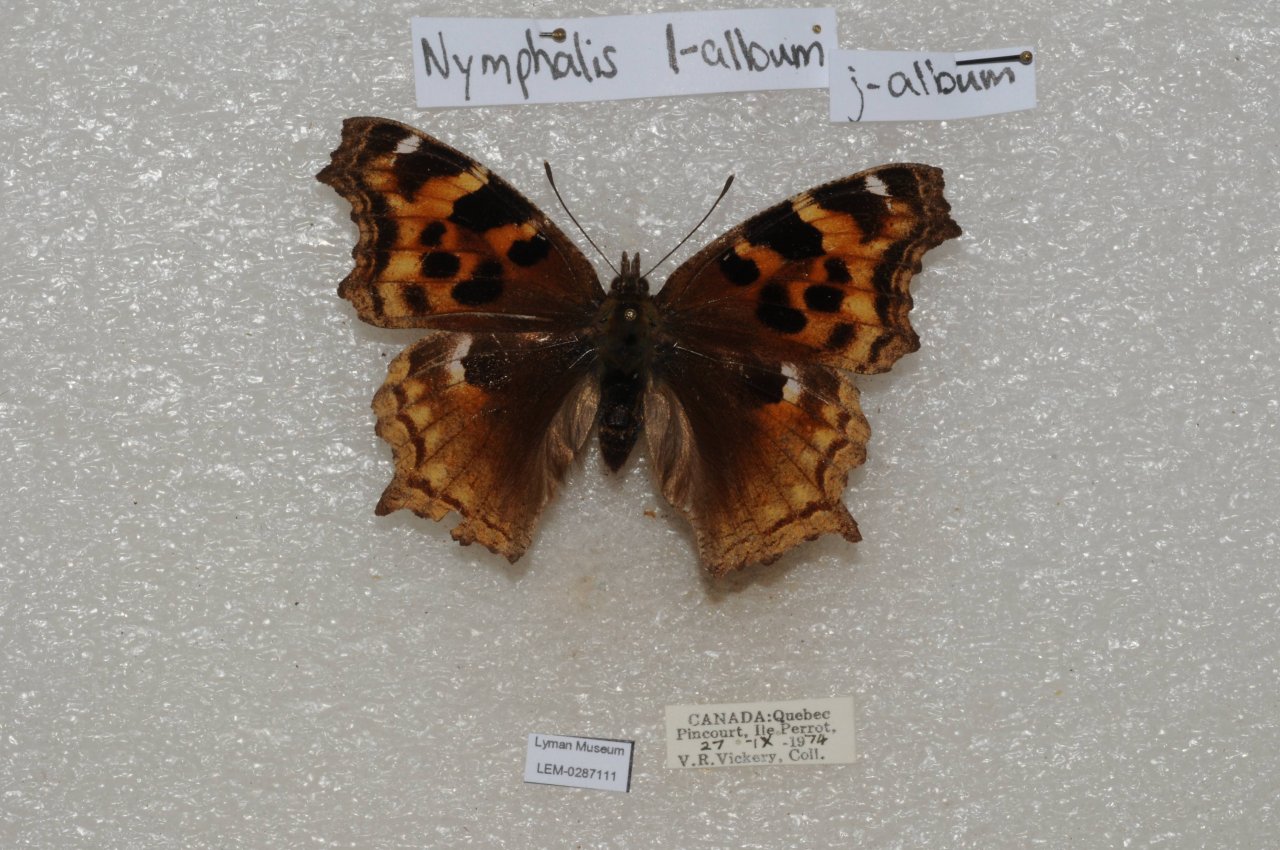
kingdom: Animalia
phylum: Arthropoda
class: Insecta
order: Lepidoptera
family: Nymphalidae
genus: Polygonia
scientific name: Polygonia vaualbum
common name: Compton Tortoiseshell
